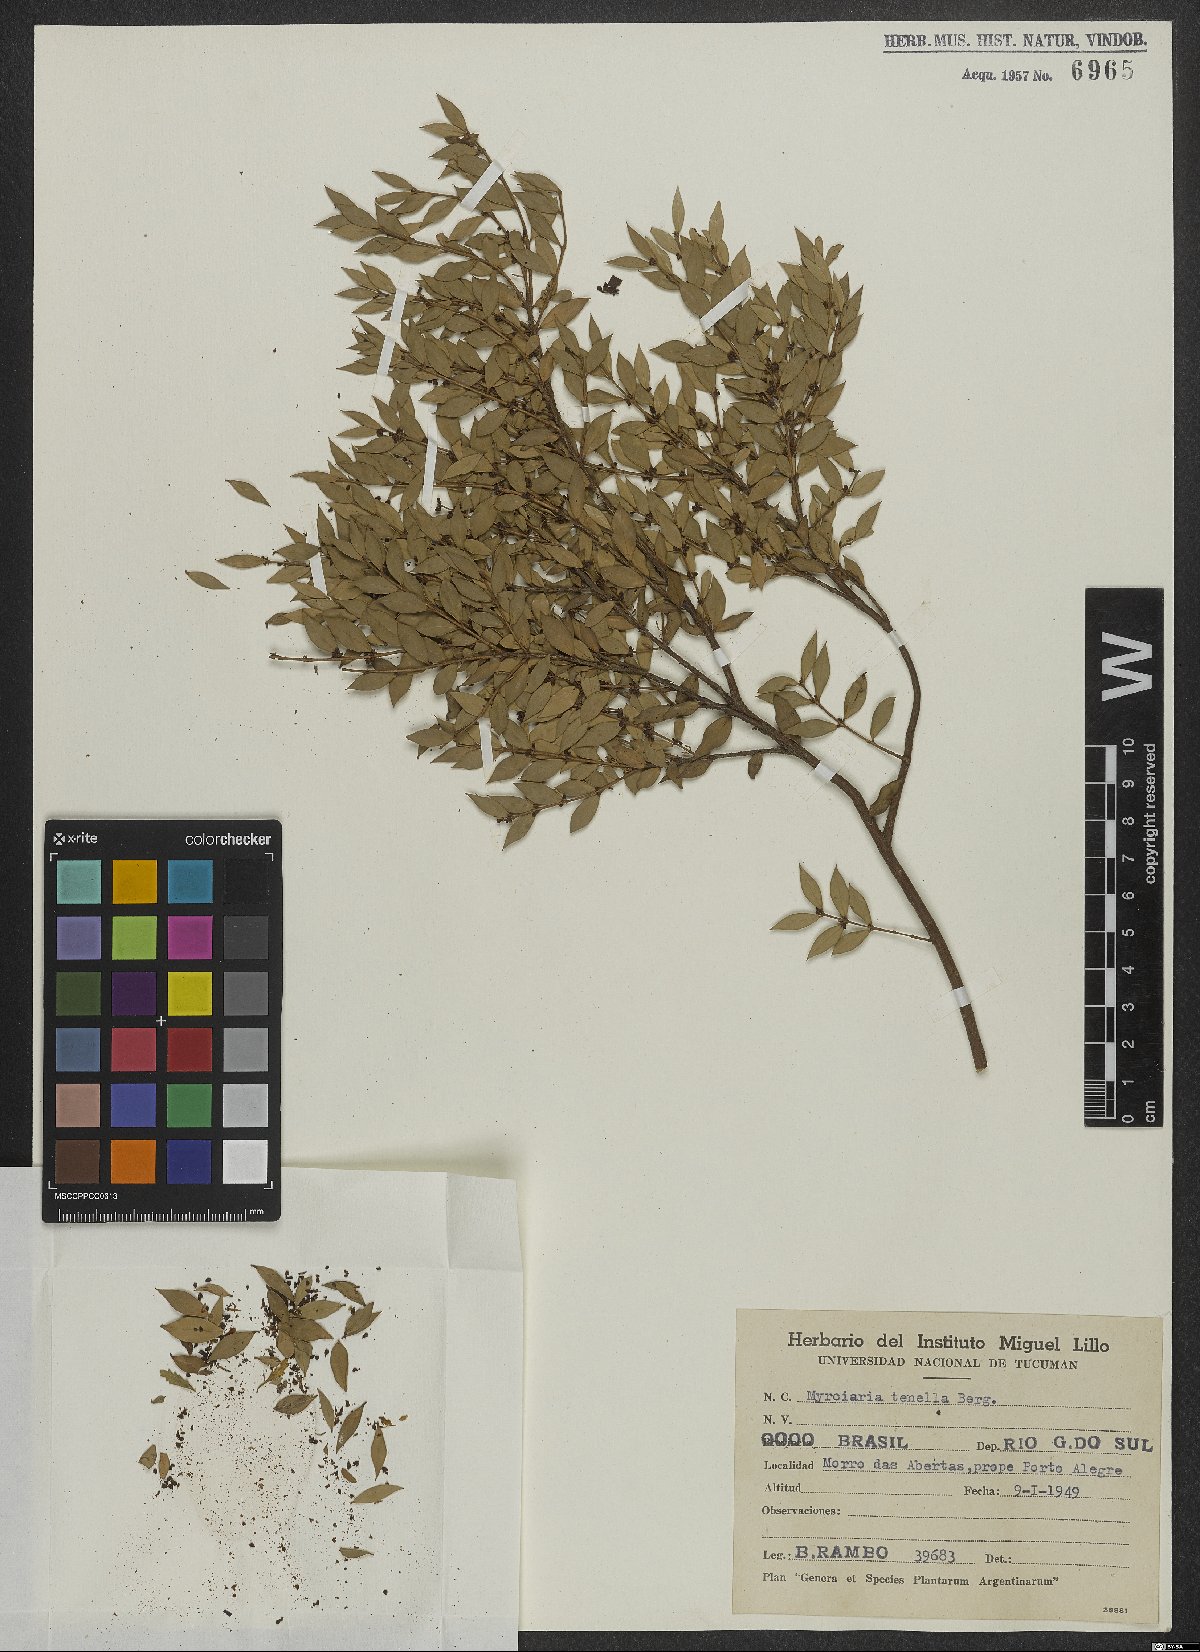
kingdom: Plantae
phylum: Tracheophyta
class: Magnoliopsida
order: Myrtales
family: Myrtaceae
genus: Myrciaria
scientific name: Myrciaria tenella
